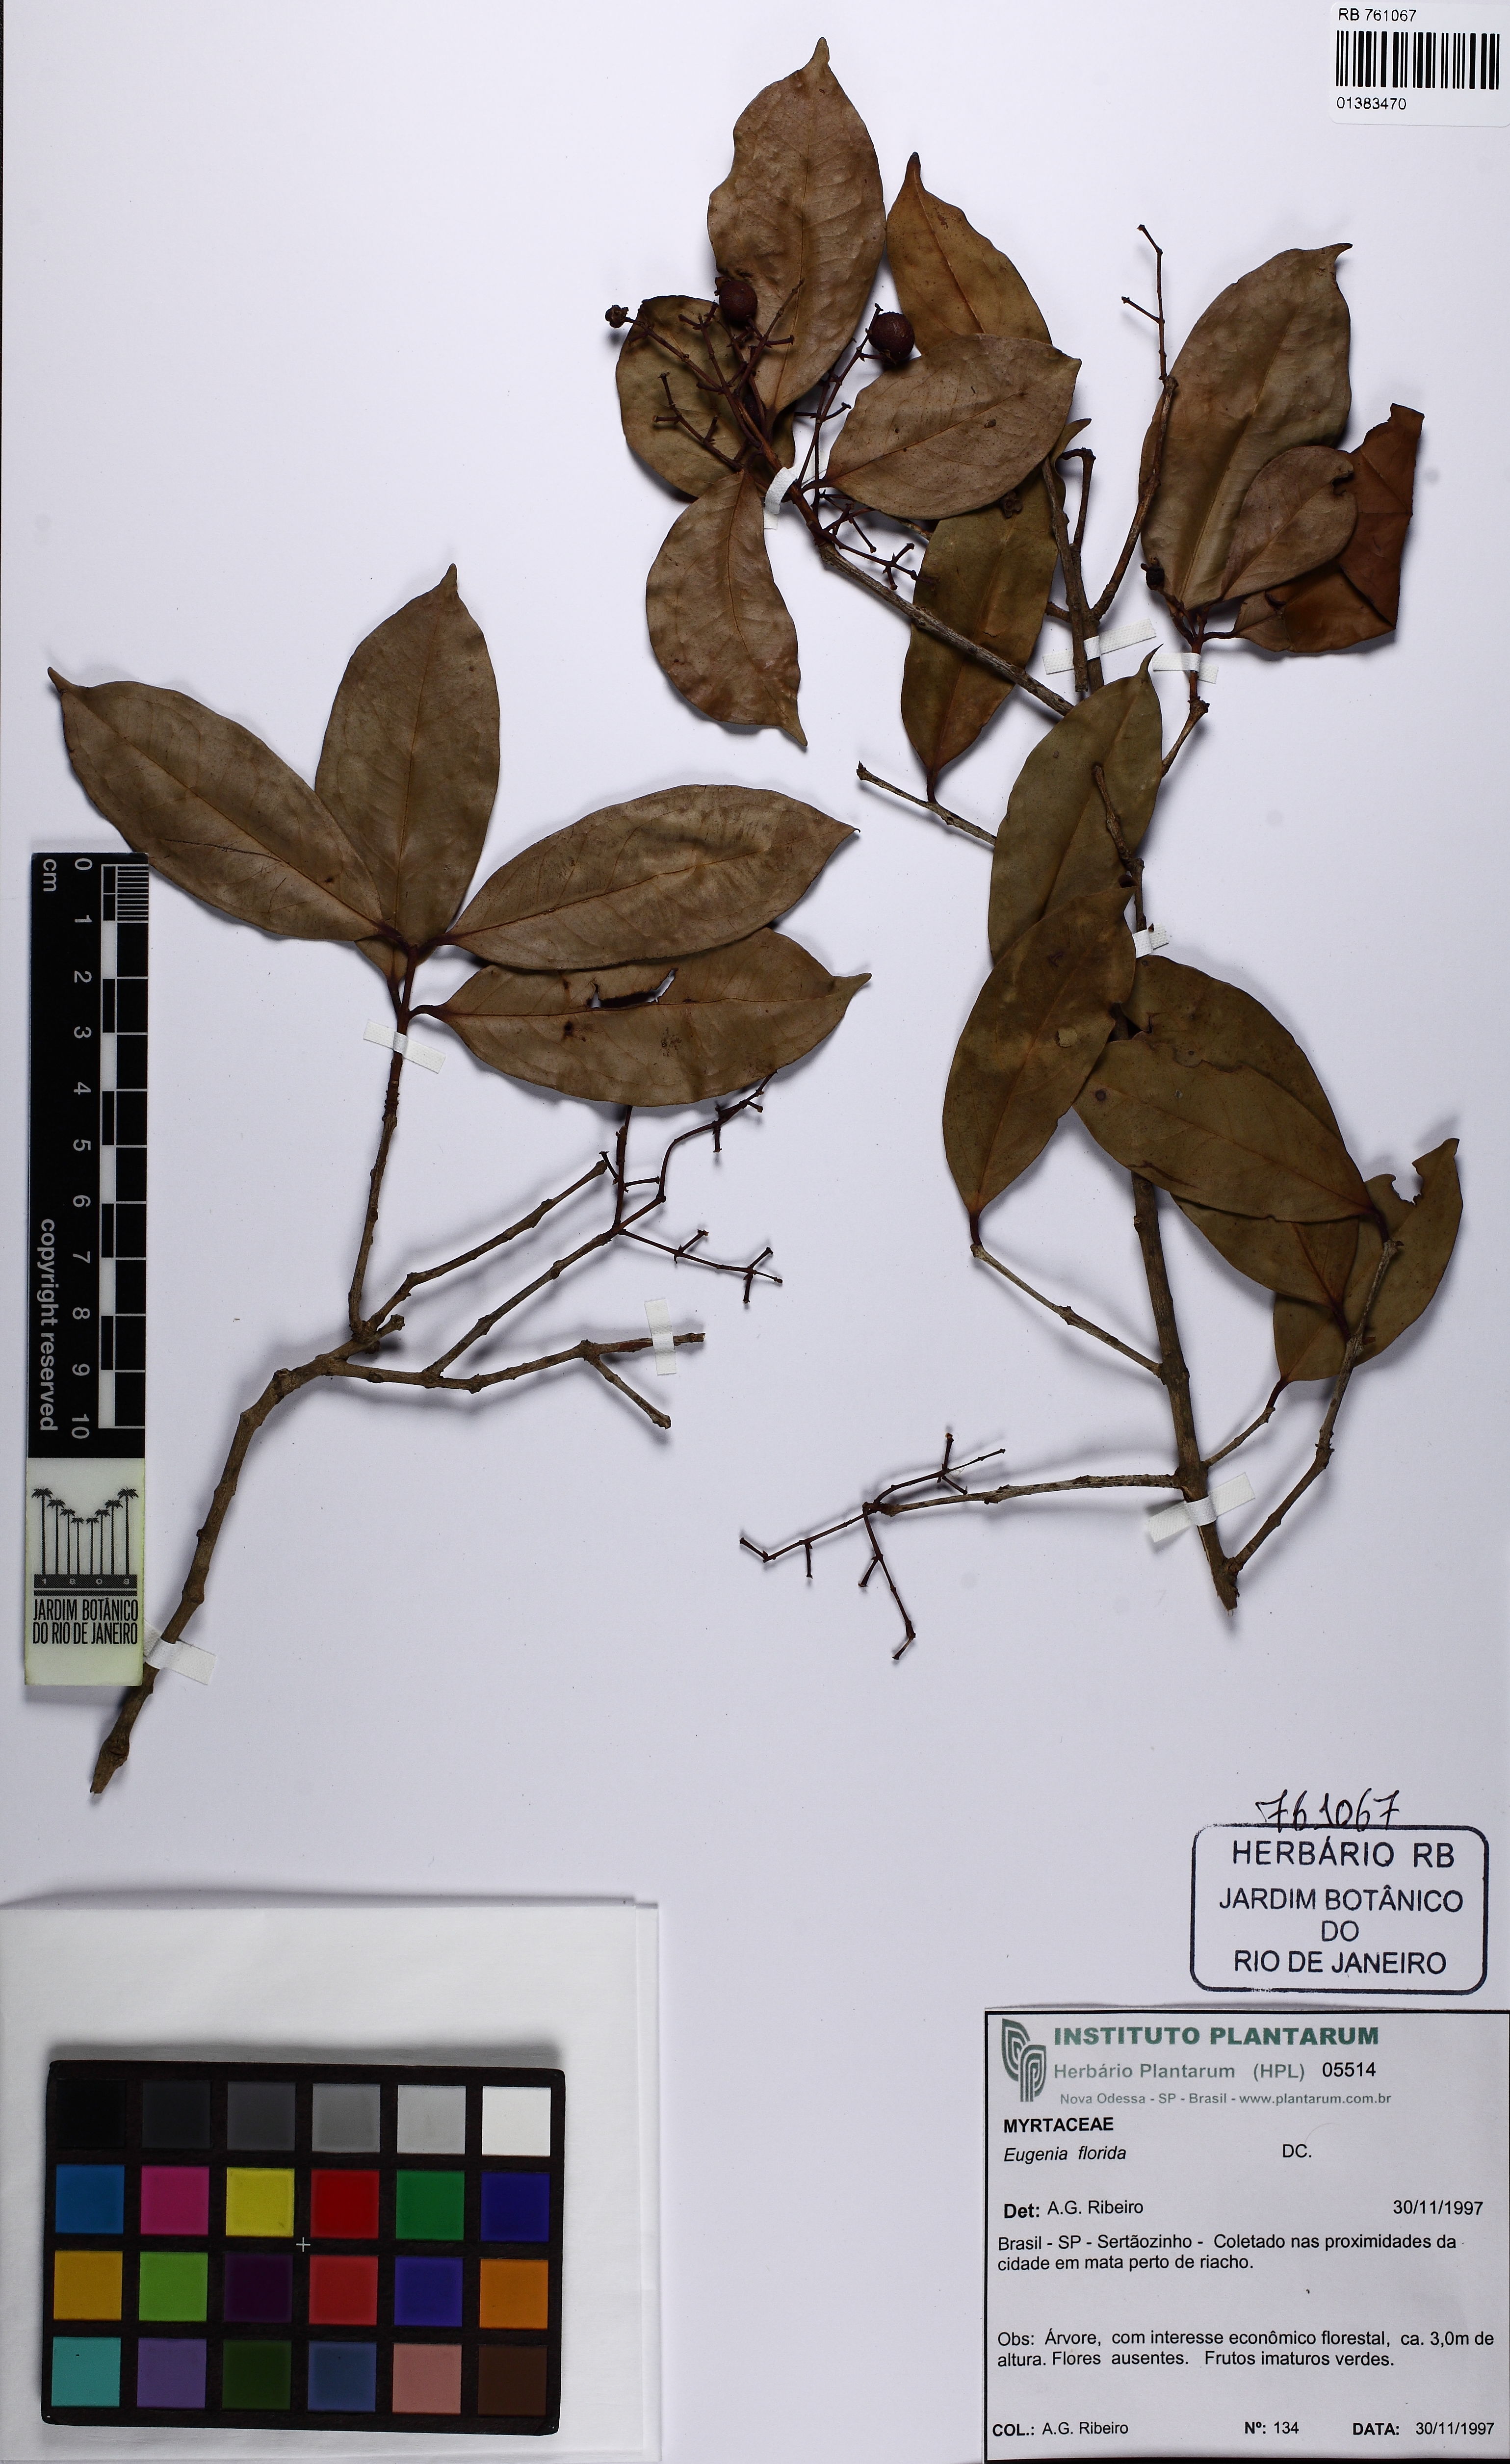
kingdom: Plantae
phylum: Tracheophyta
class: Magnoliopsida
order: Myrtales
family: Myrtaceae
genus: Eugenia
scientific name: Eugenia florida
